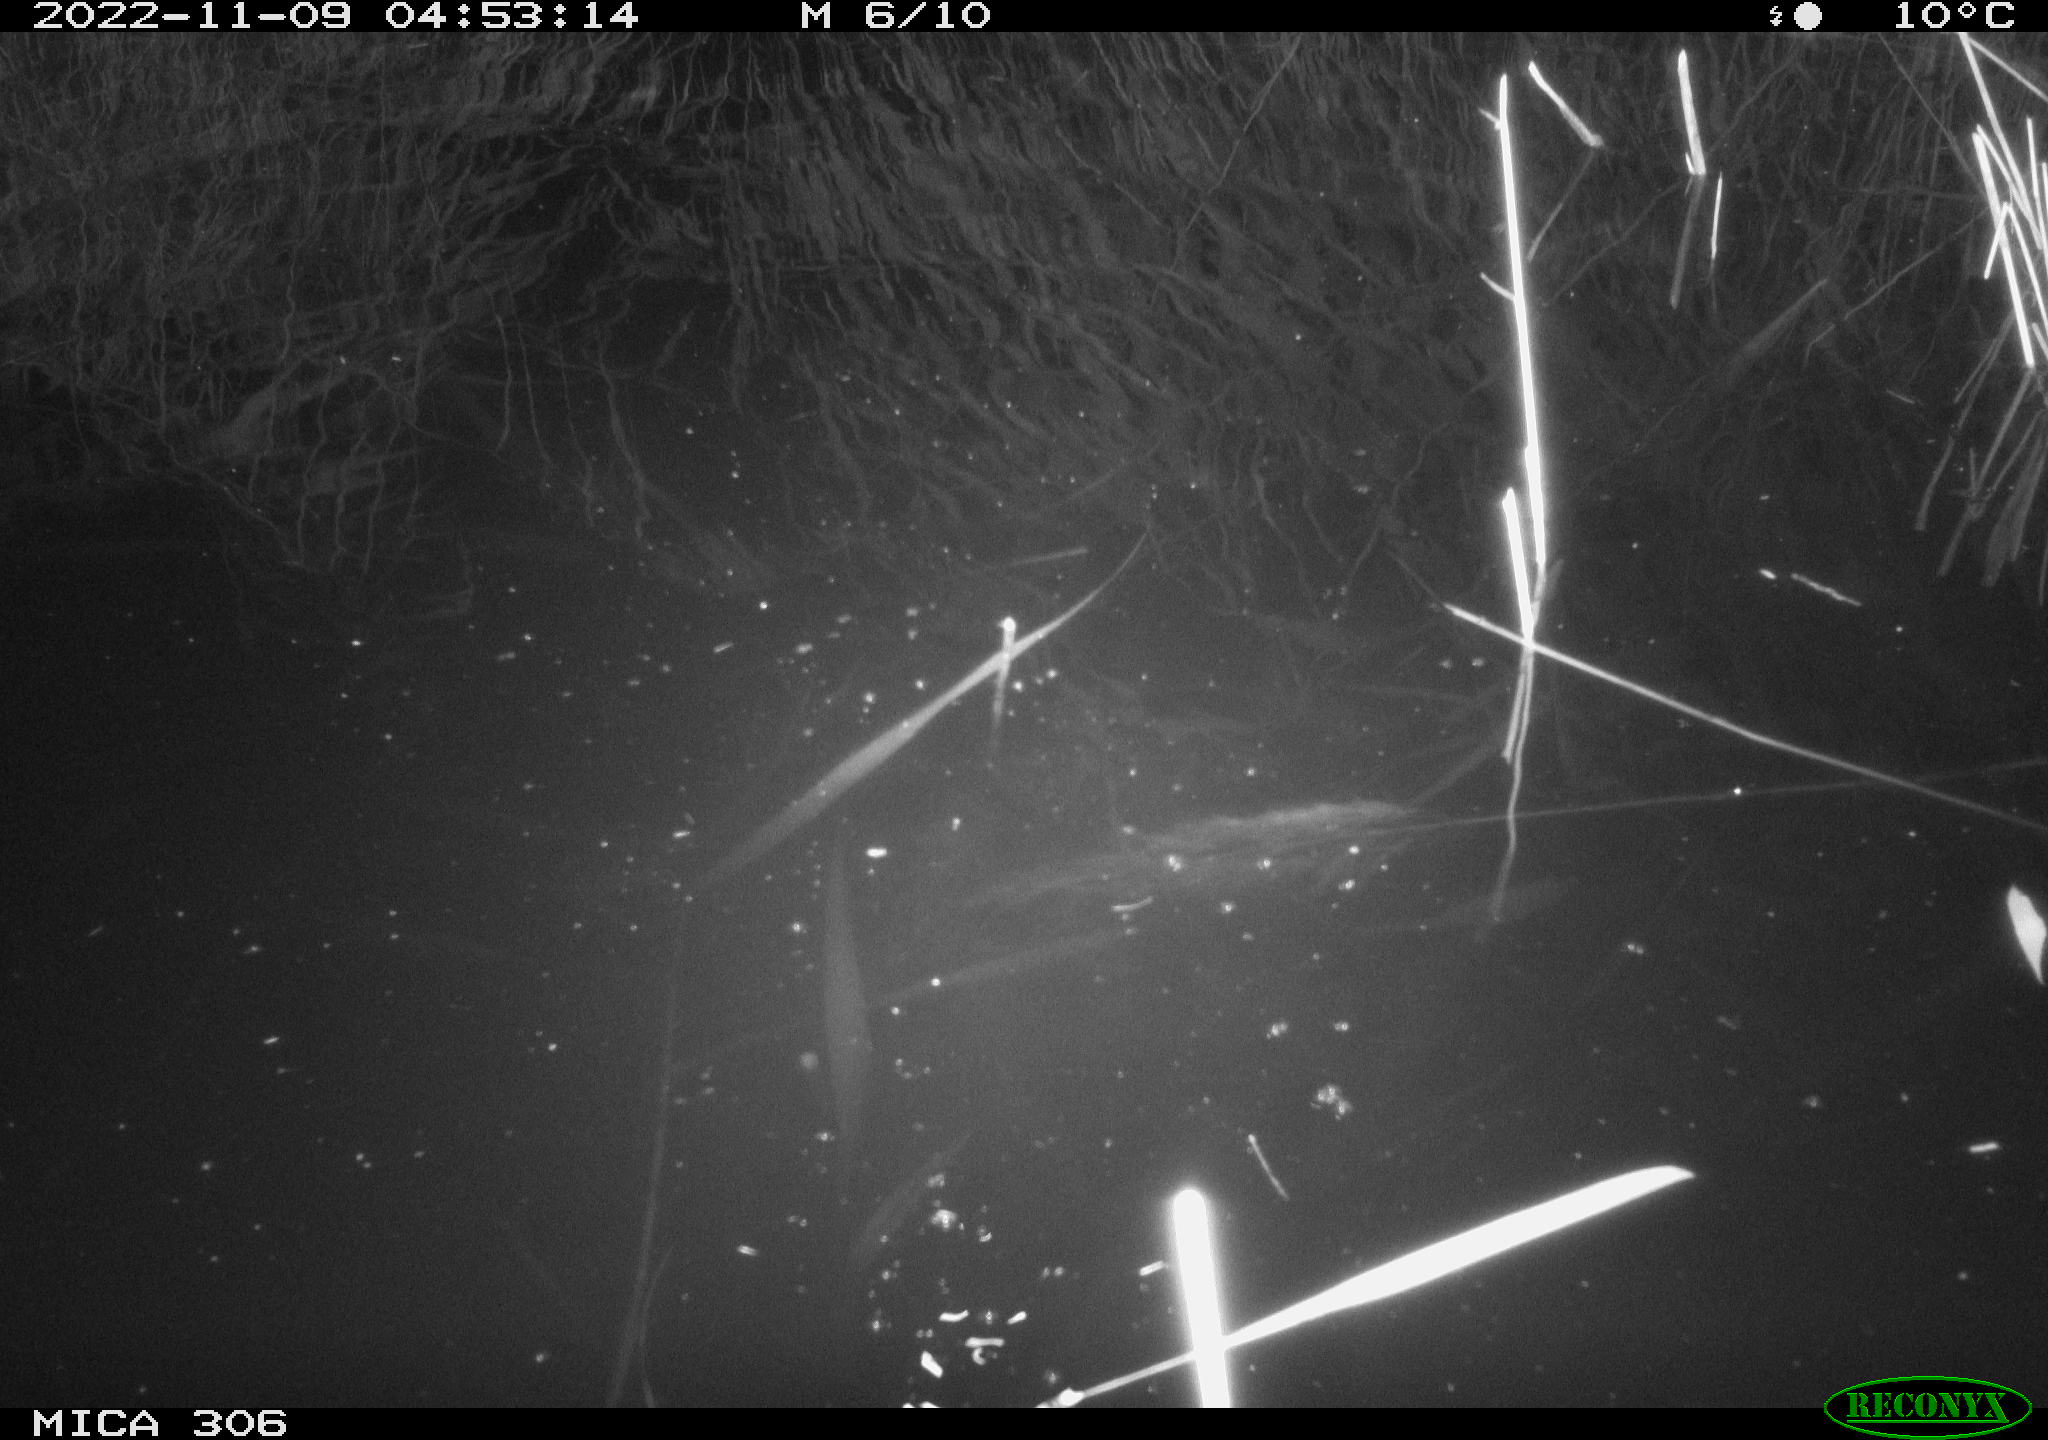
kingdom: Animalia
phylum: Chordata
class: Mammalia
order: Rodentia
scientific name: Rodentia
